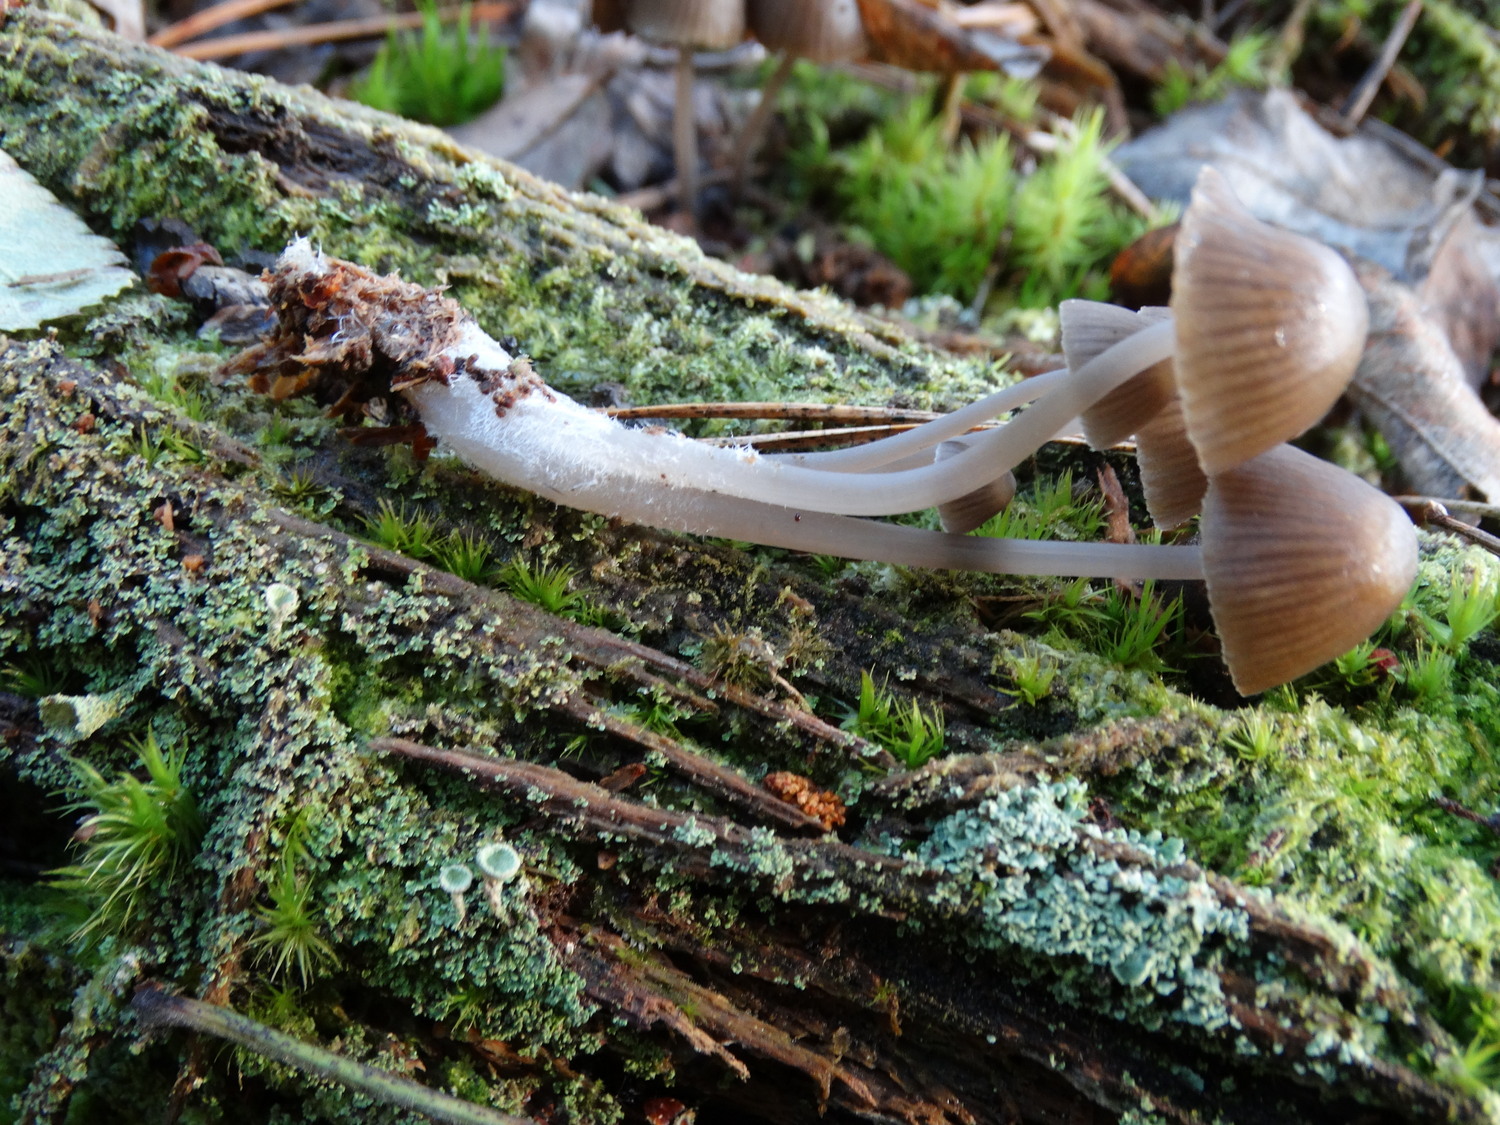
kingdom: Fungi
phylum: Basidiomycota
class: Agaricomycetes
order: Agaricales
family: Mycenaceae
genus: Mycena
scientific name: Mycena stipata
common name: stinkende huesvamp
